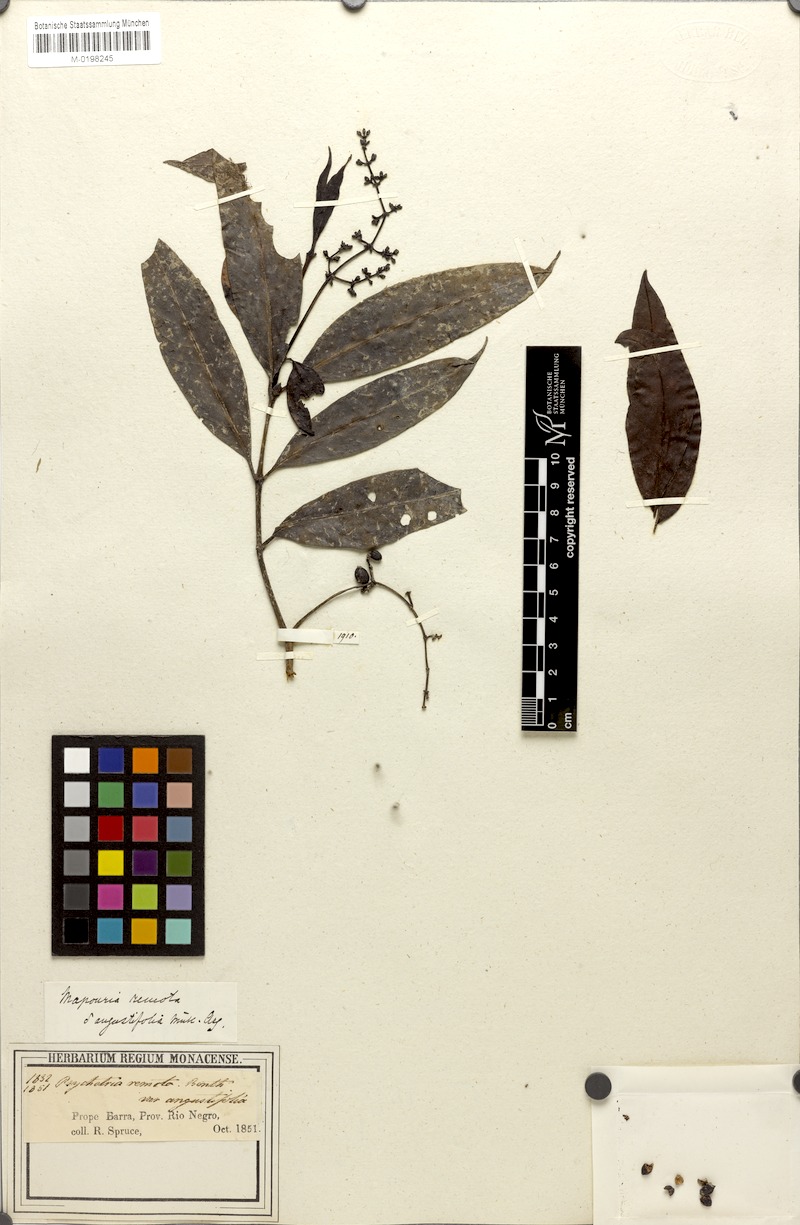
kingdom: Plantae
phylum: Tracheophyta
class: Magnoliopsida
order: Gentianales
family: Rubiaceae
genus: Psychotria
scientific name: Psychotria remota
